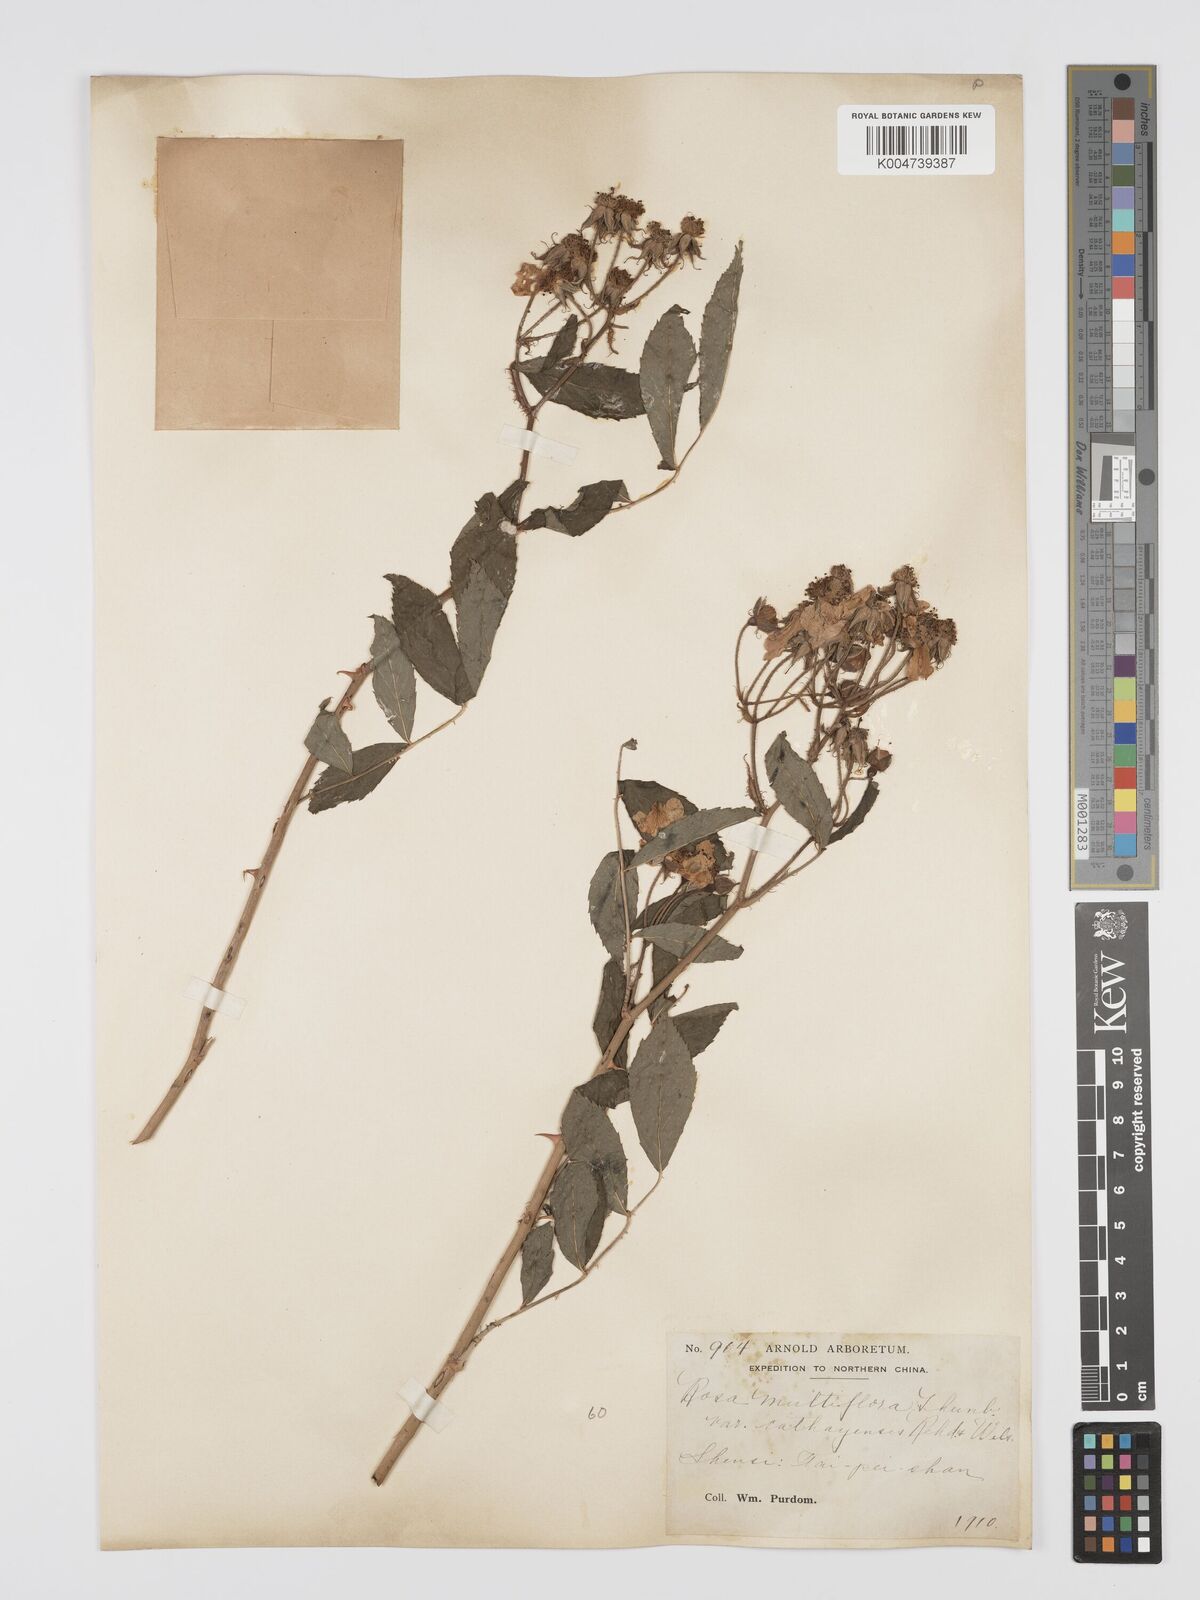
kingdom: Plantae
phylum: Tracheophyta
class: Magnoliopsida
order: Rosales
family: Rosaceae
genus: Rosa
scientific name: Rosa multiflora
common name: Multiflora rose
